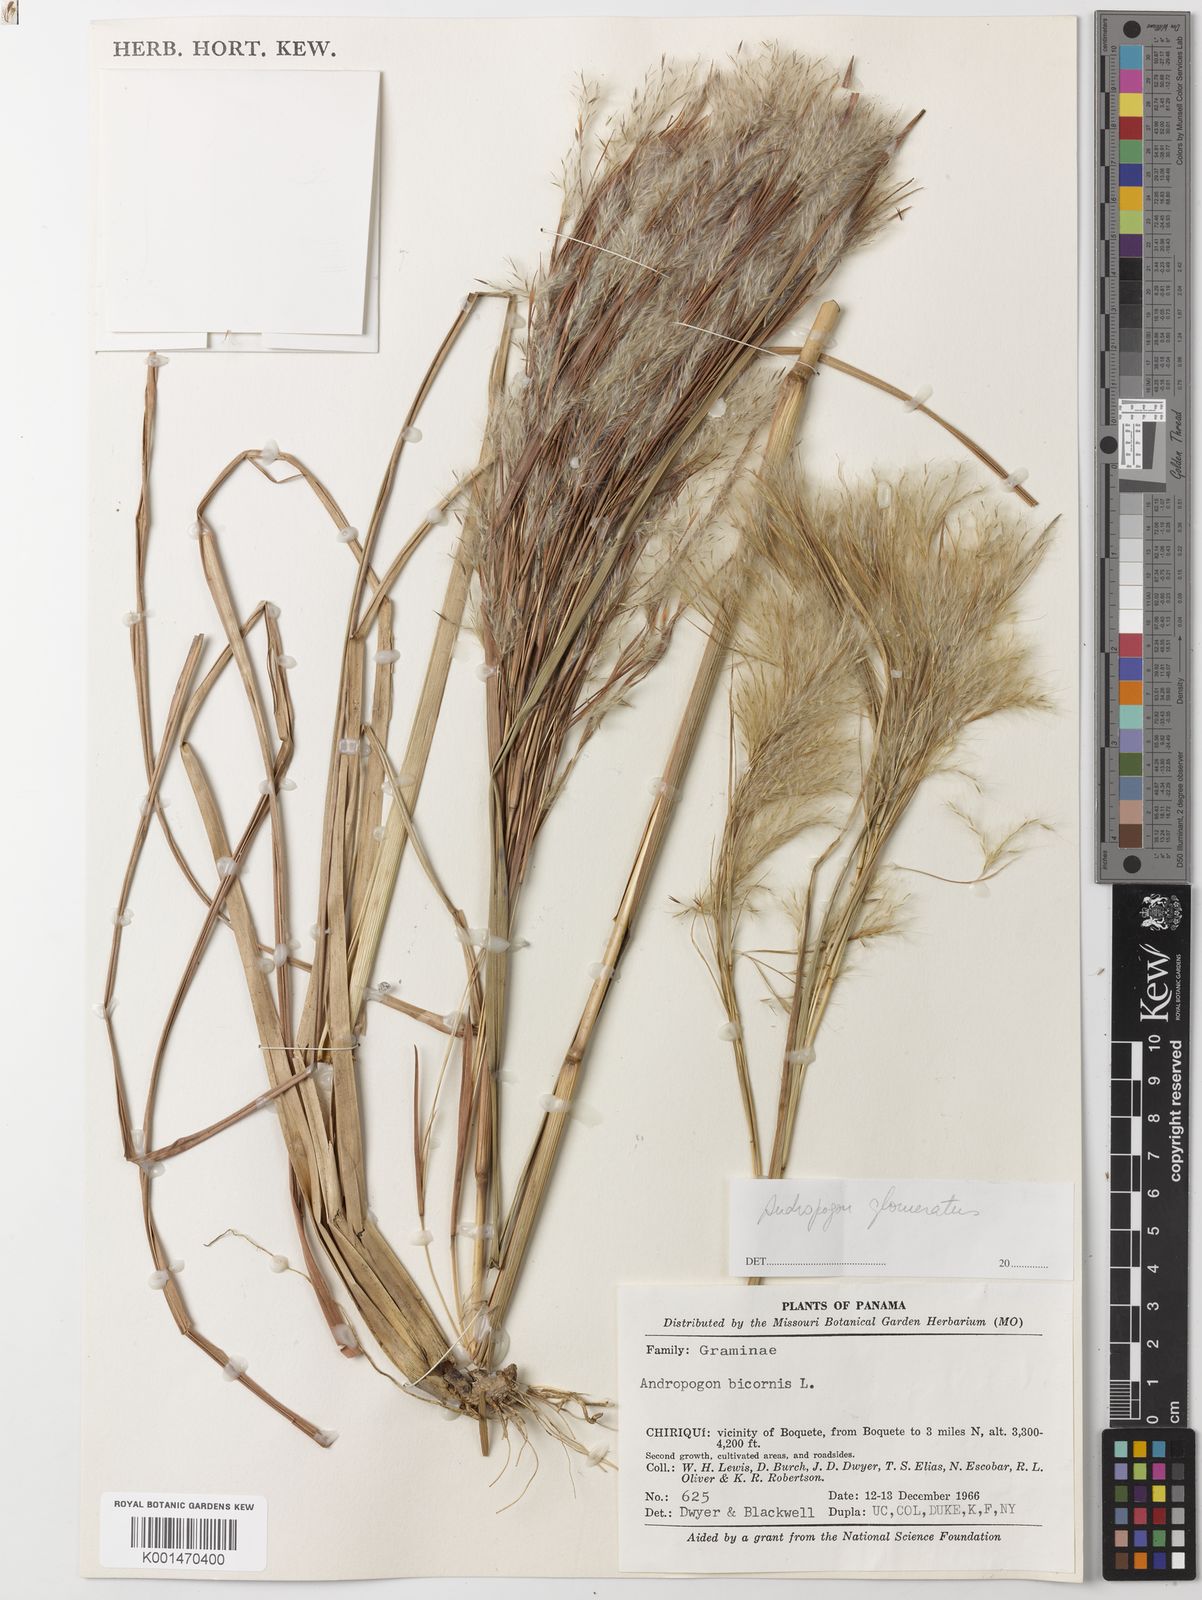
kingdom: Plantae
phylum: Tracheophyta
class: Liliopsida
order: Poales
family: Poaceae
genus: Andropogon
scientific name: Andropogon glomeratus
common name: Bushy beard grass
